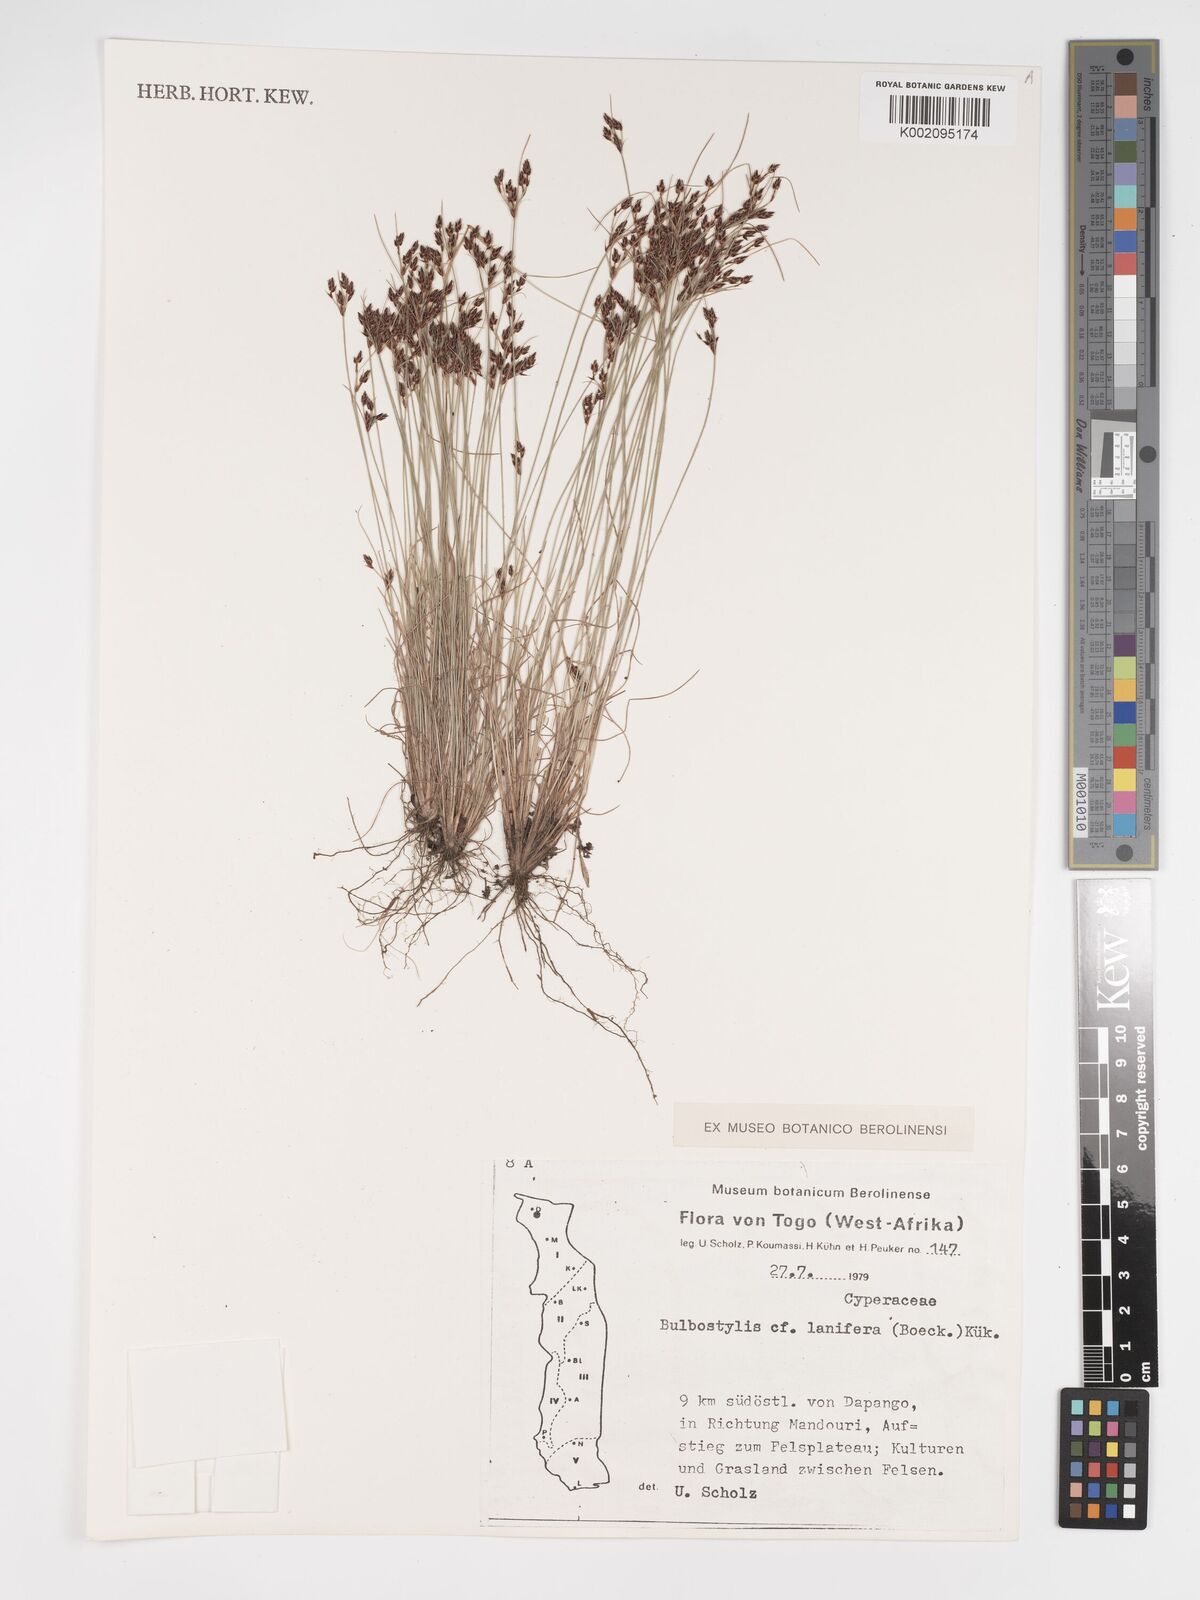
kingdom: Plantae
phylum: Tracheophyta
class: Liliopsida
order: Poales
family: Cyperaceae
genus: Bulbostylis
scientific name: Bulbostylis lanifera
